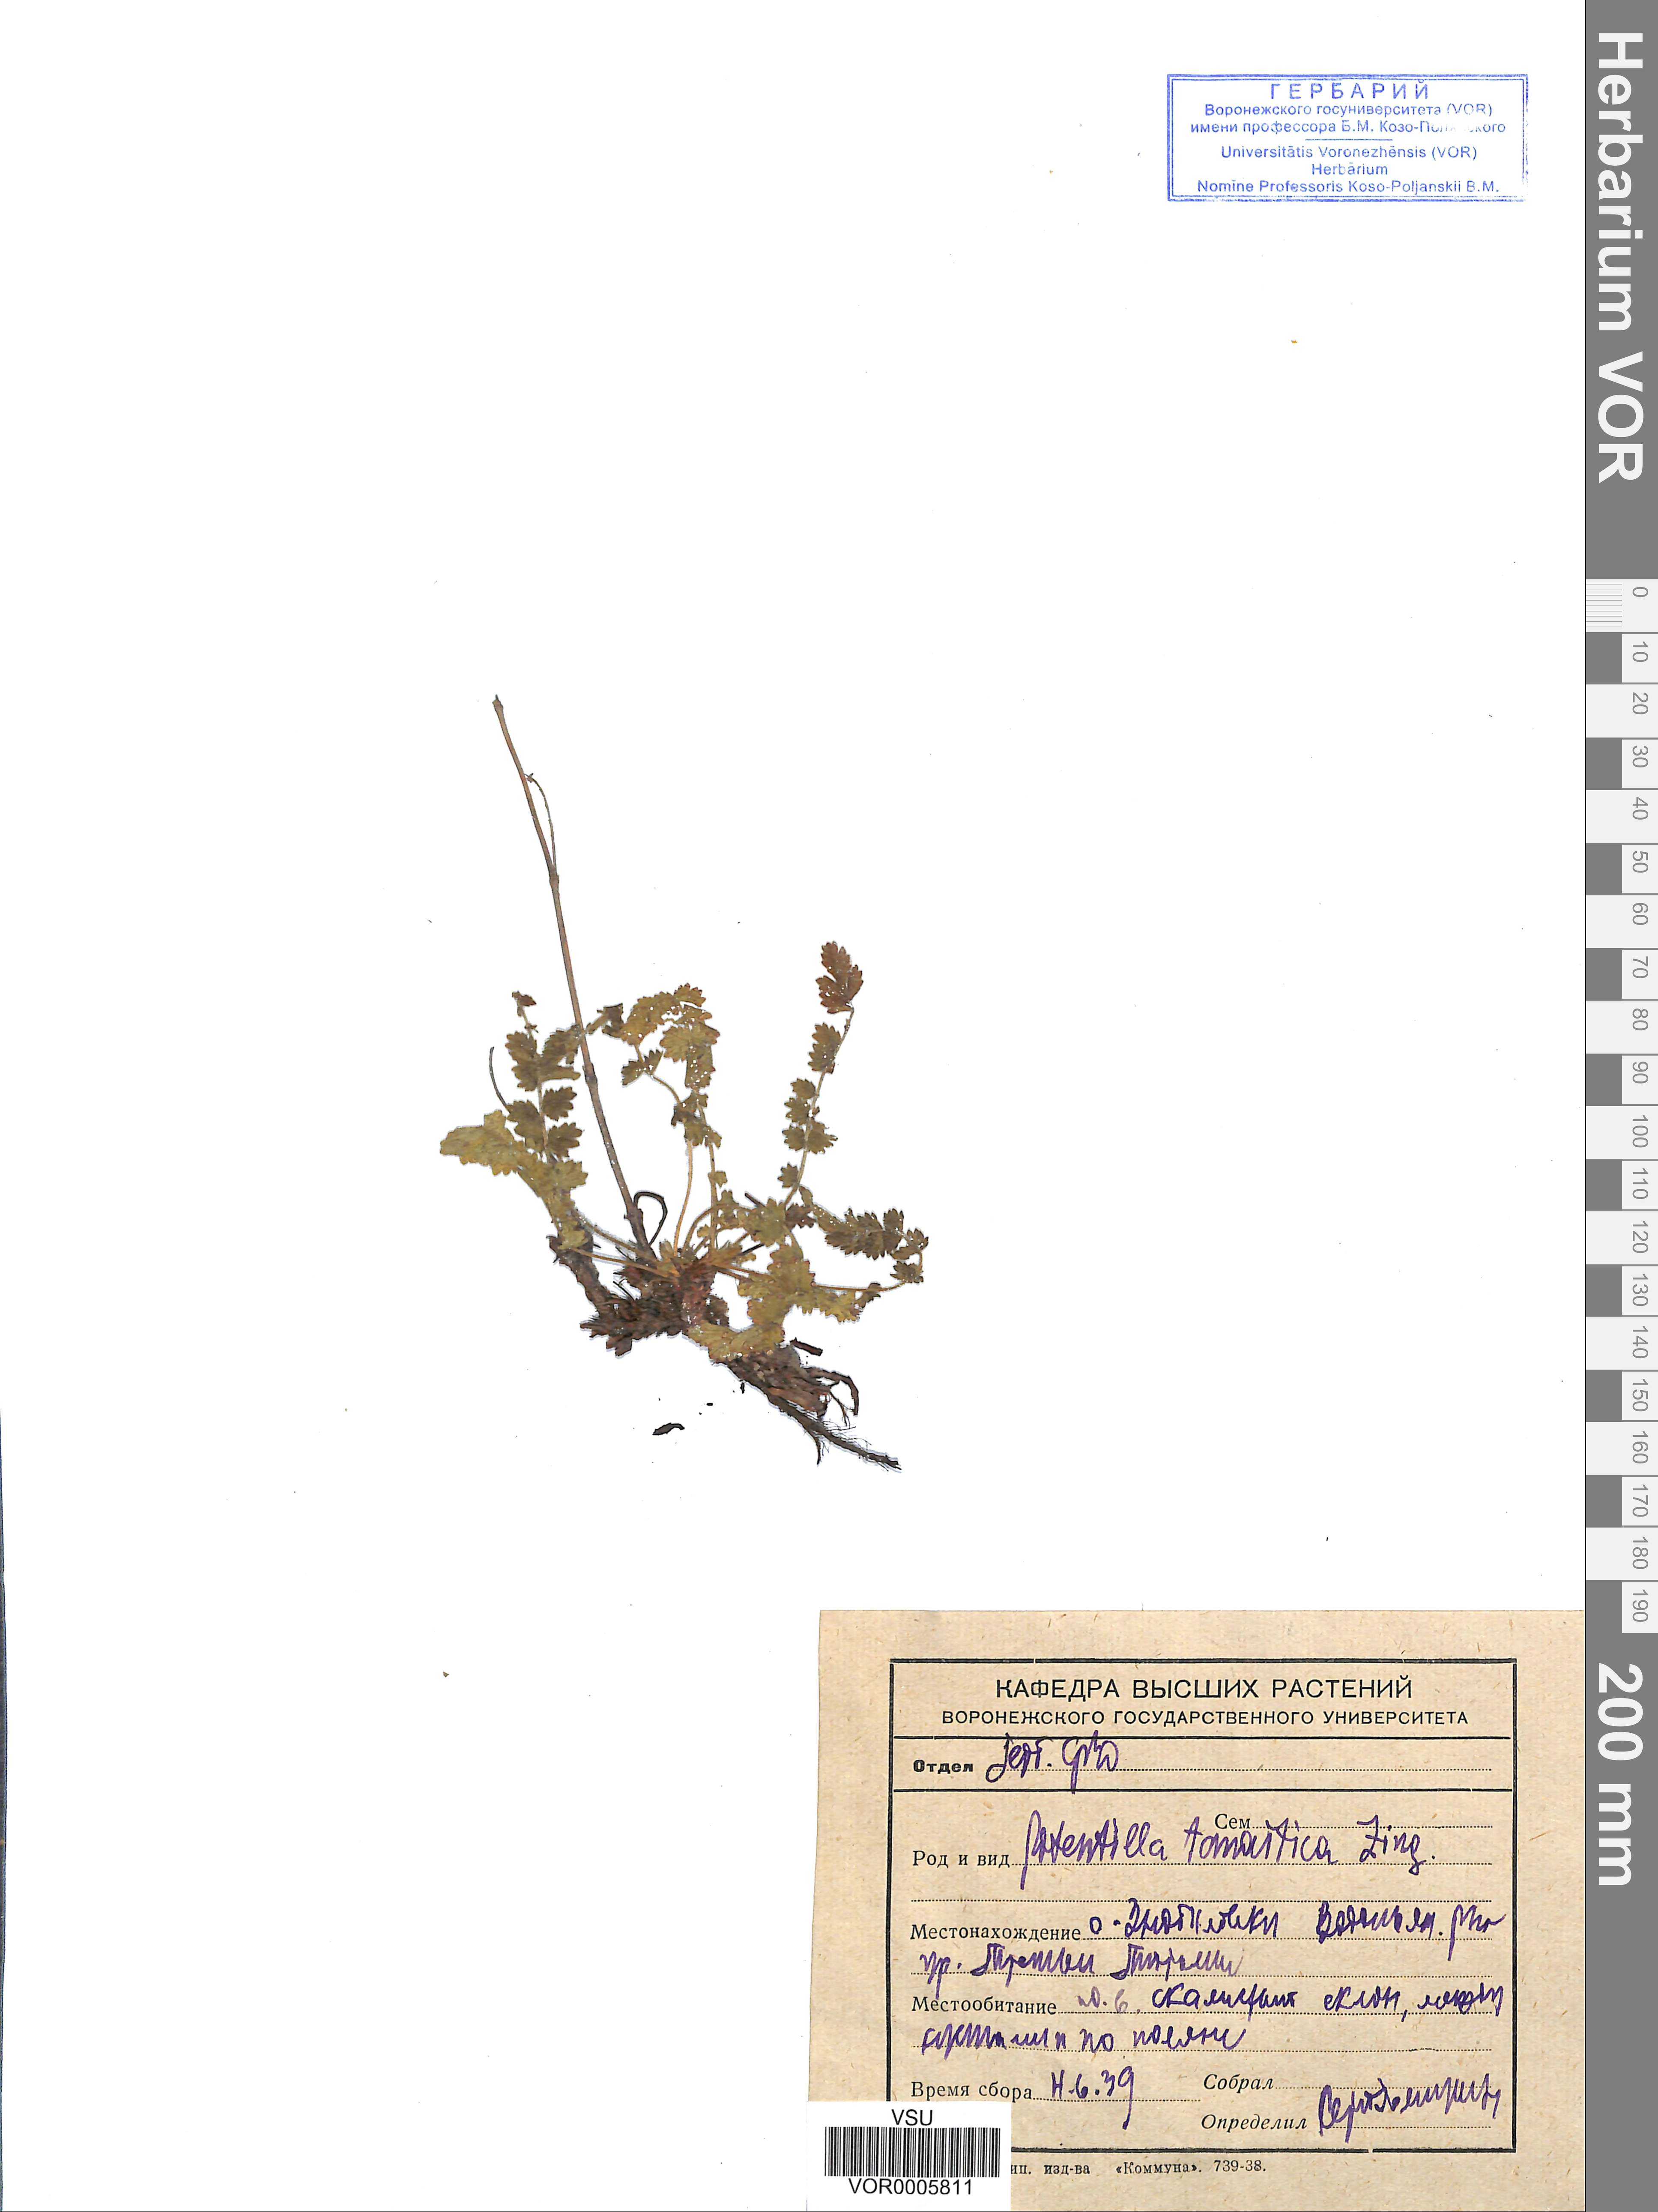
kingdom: Plantae
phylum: Tracheophyta
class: Magnoliopsida
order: Rosales
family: Rosaceae
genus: Potentilla
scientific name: Potentilla tanaitica
